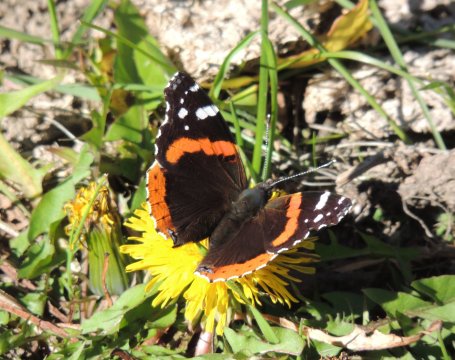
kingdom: Animalia
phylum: Arthropoda
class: Insecta
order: Lepidoptera
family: Nymphalidae
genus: Vanessa
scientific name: Vanessa atalanta
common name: Red Admiral
